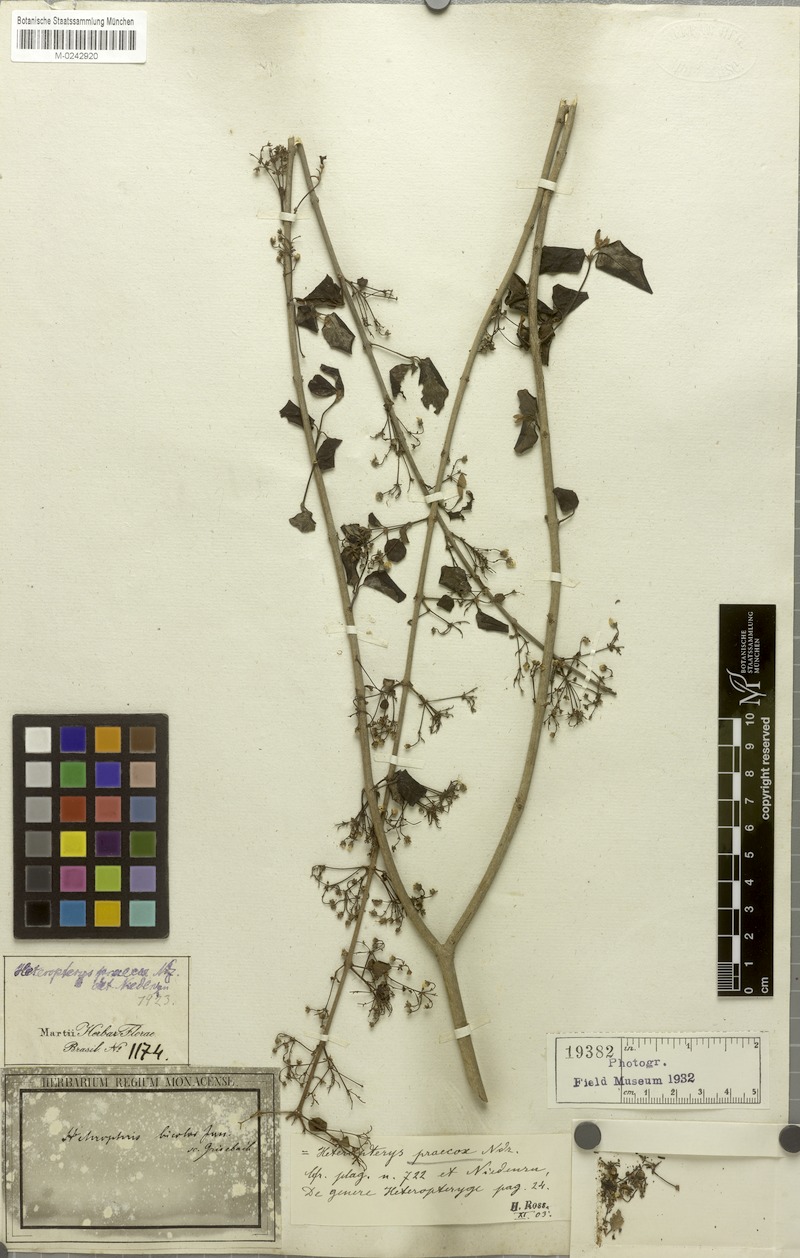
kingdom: Plantae
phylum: Tracheophyta
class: Magnoliopsida
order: Malpighiales
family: Malpighiaceae
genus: Heteropterys
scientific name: Heteropterys dumetorum
